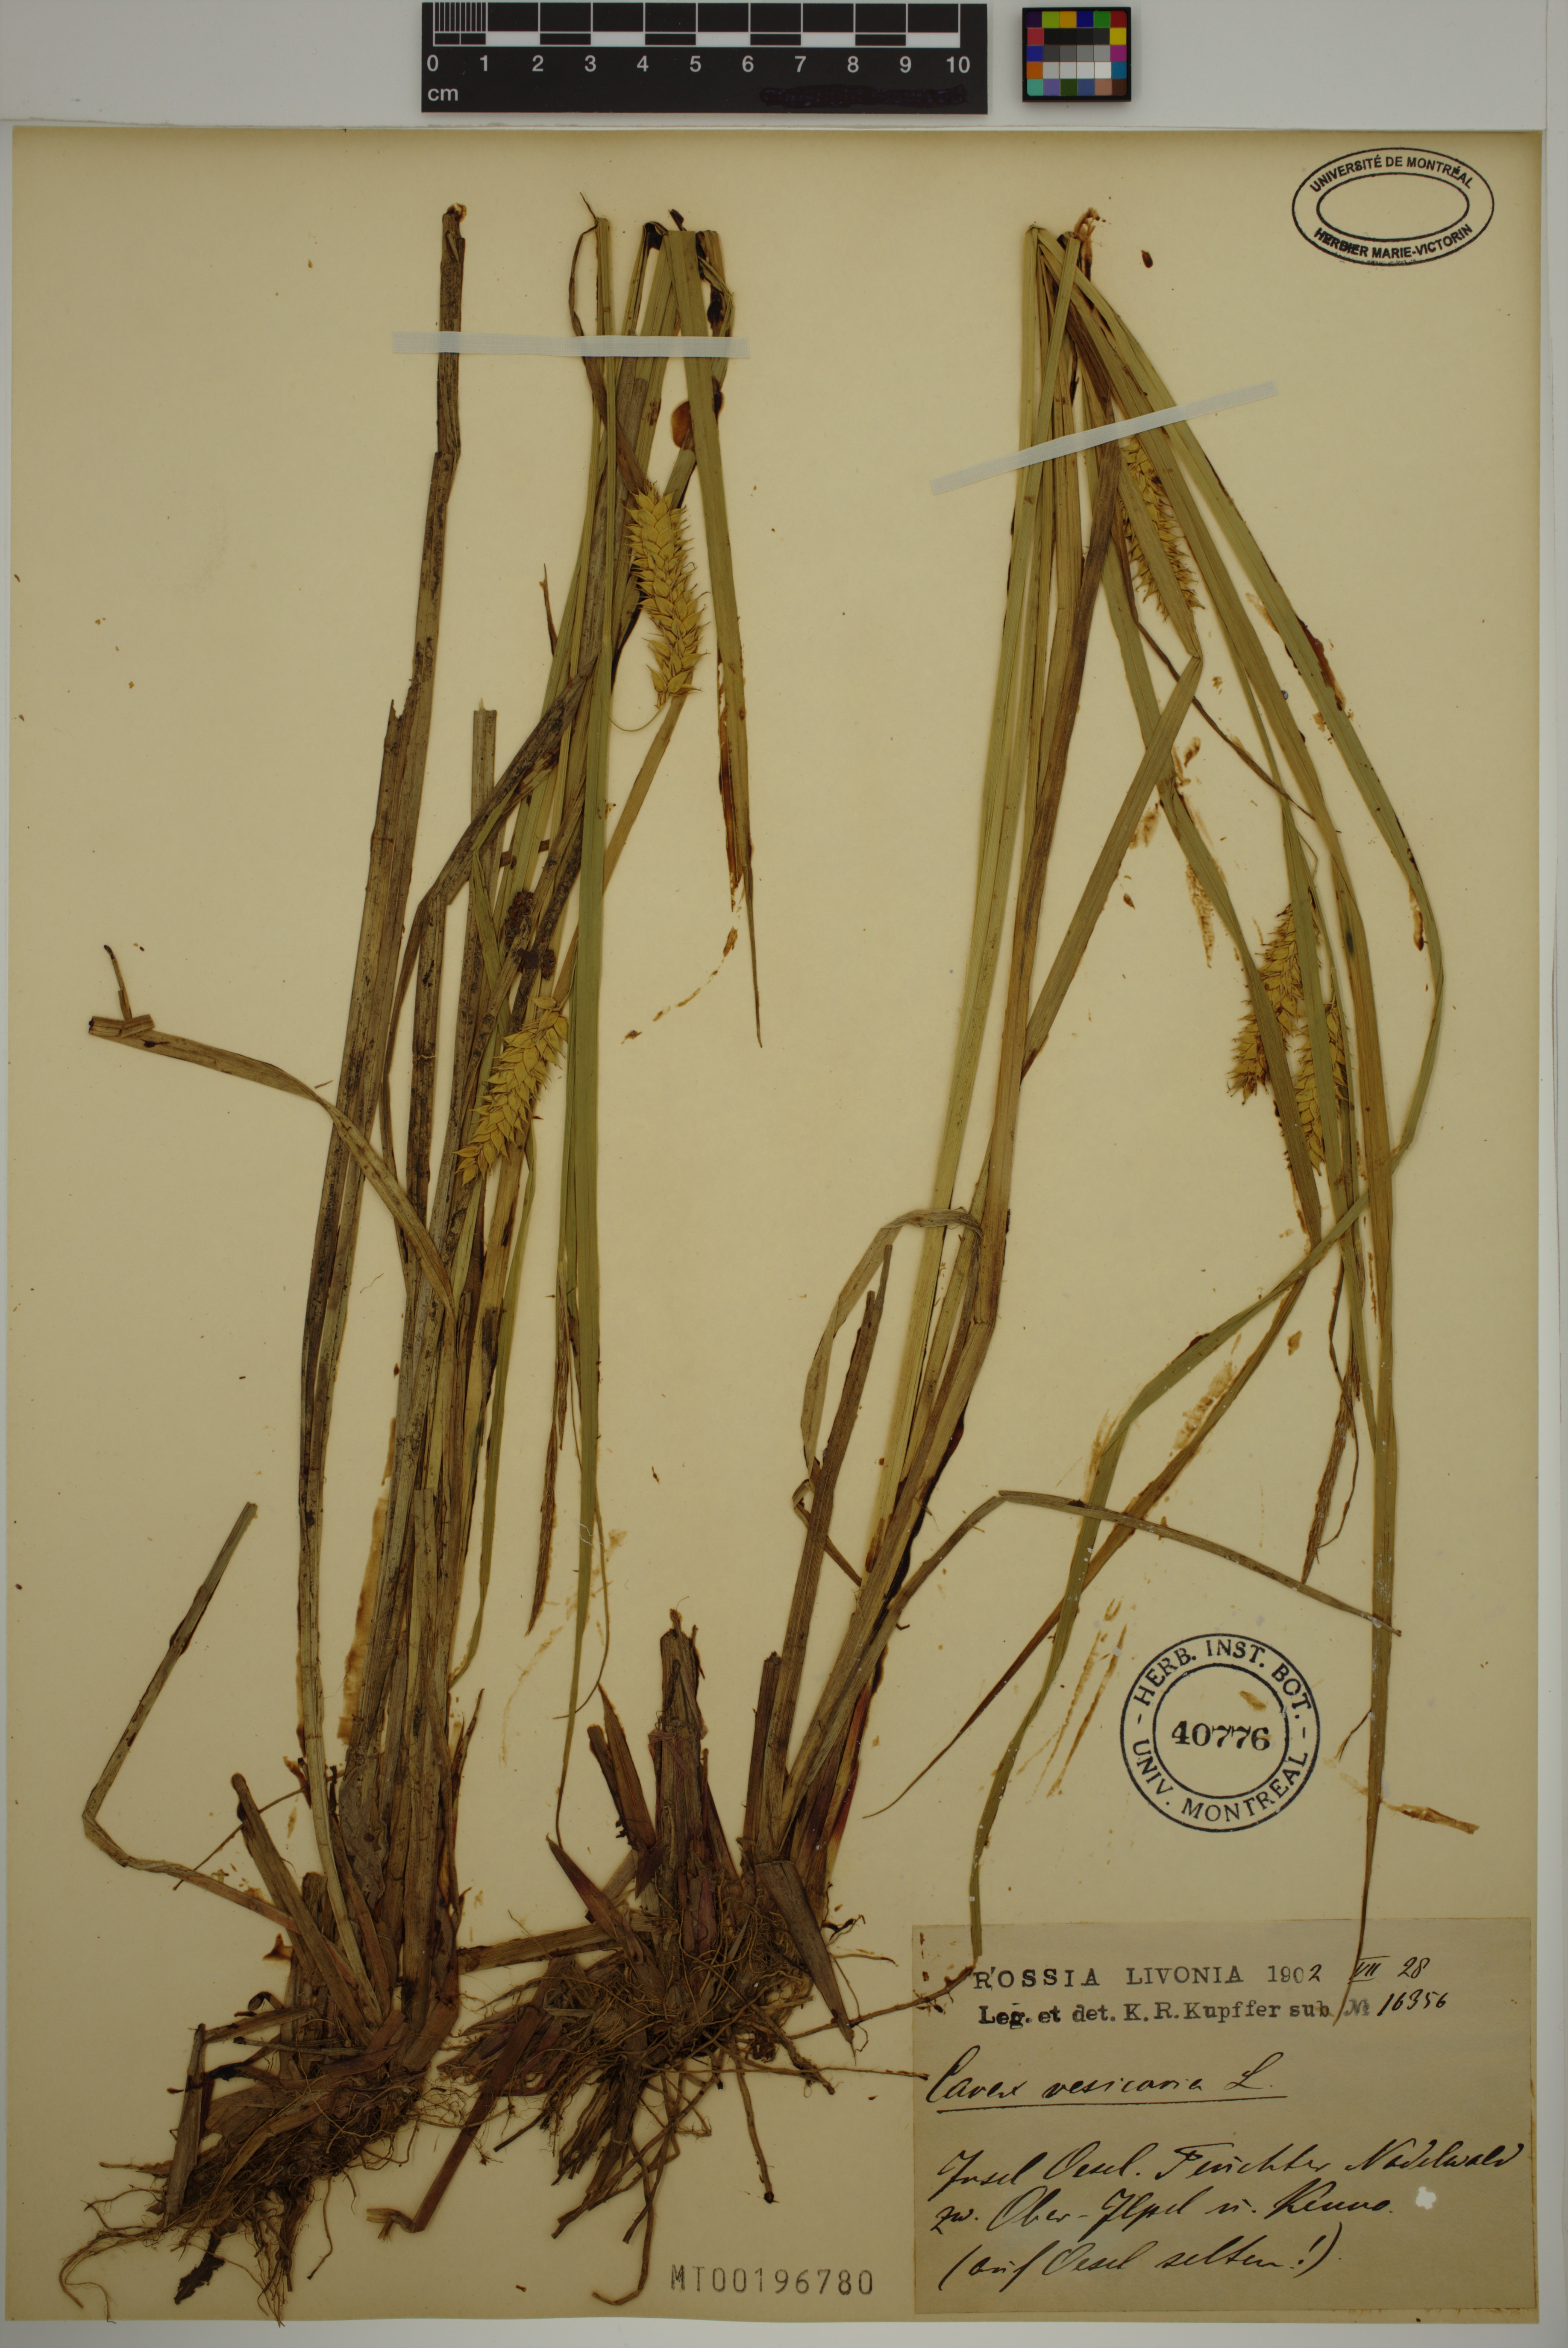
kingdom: Plantae
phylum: Tracheophyta
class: Liliopsida
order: Poales
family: Cyperaceae
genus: Carex
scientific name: Carex vesicaria
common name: Bladder-sedge
